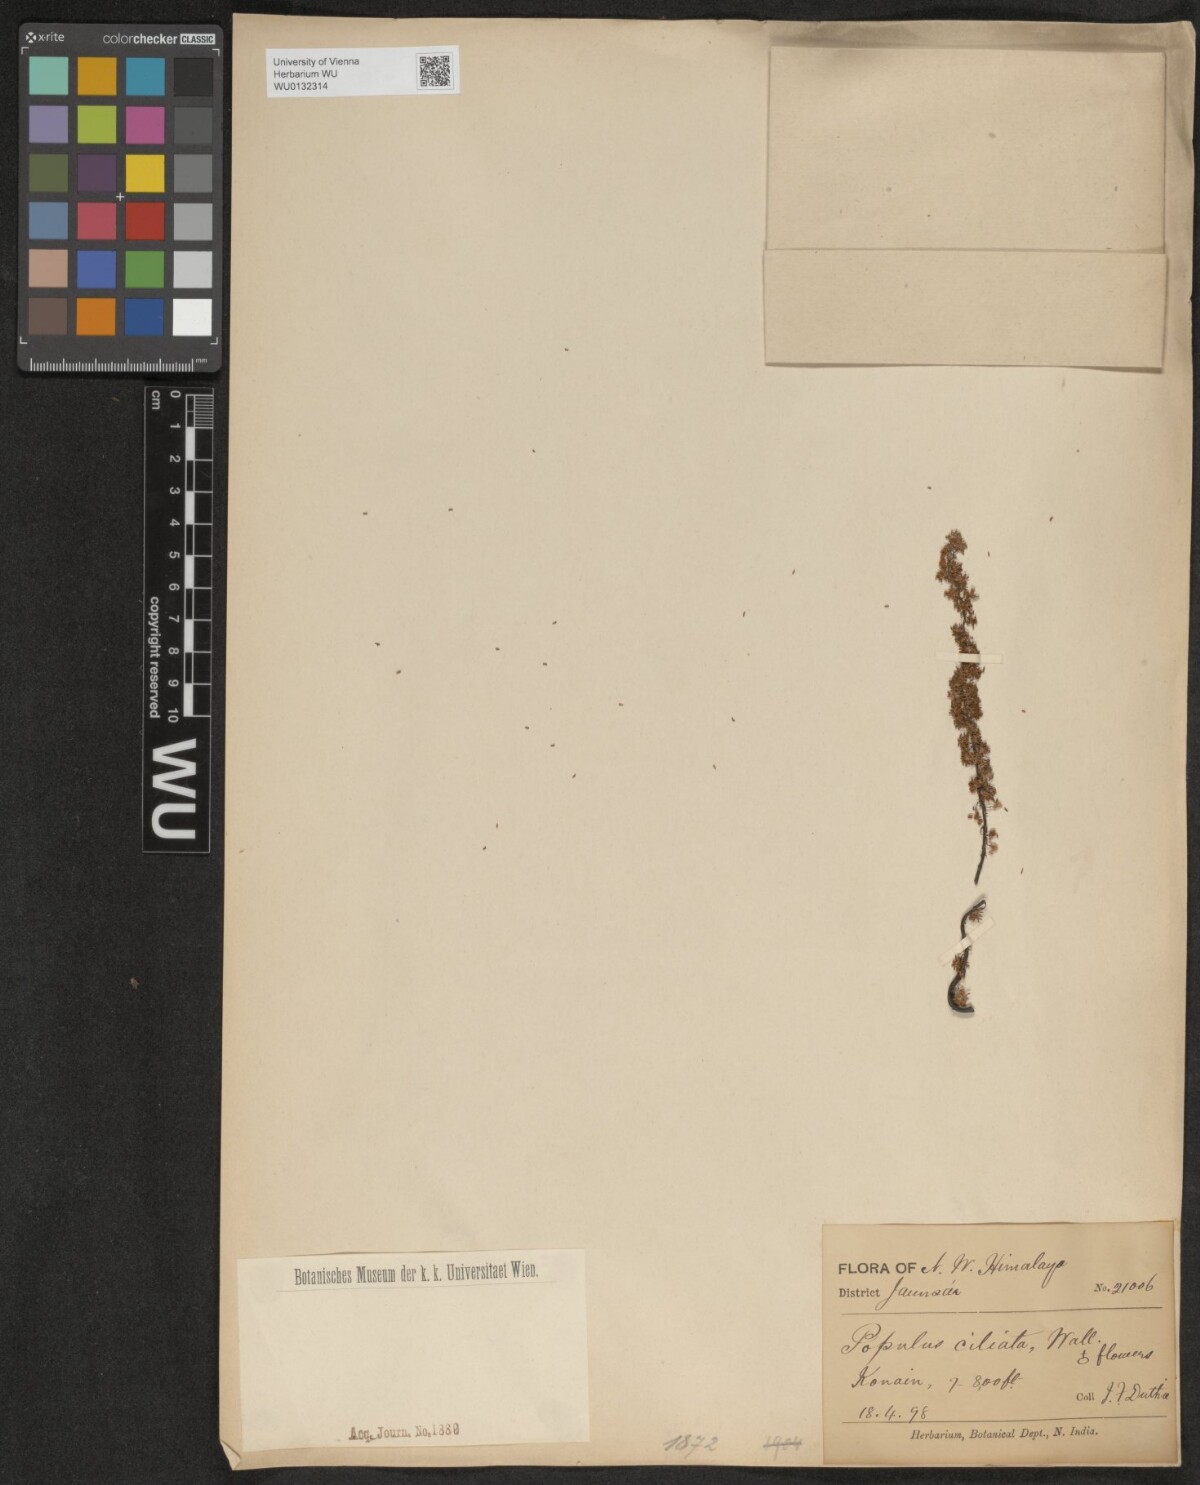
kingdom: Plantae
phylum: Tracheophyta
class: Magnoliopsida
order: Malpighiales
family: Salicaceae
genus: Populus
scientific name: Populus ciliata
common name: Himalayan poplar
